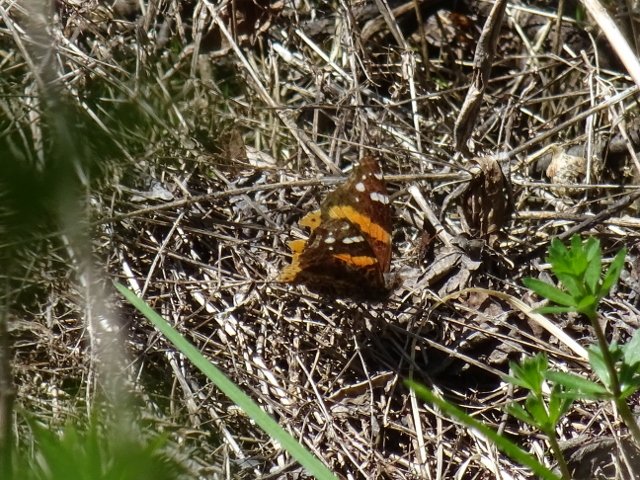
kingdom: Animalia
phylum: Arthropoda
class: Insecta
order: Lepidoptera
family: Nymphalidae
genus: Vanessa
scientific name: Vanessa atalanta
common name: Red Admiral
